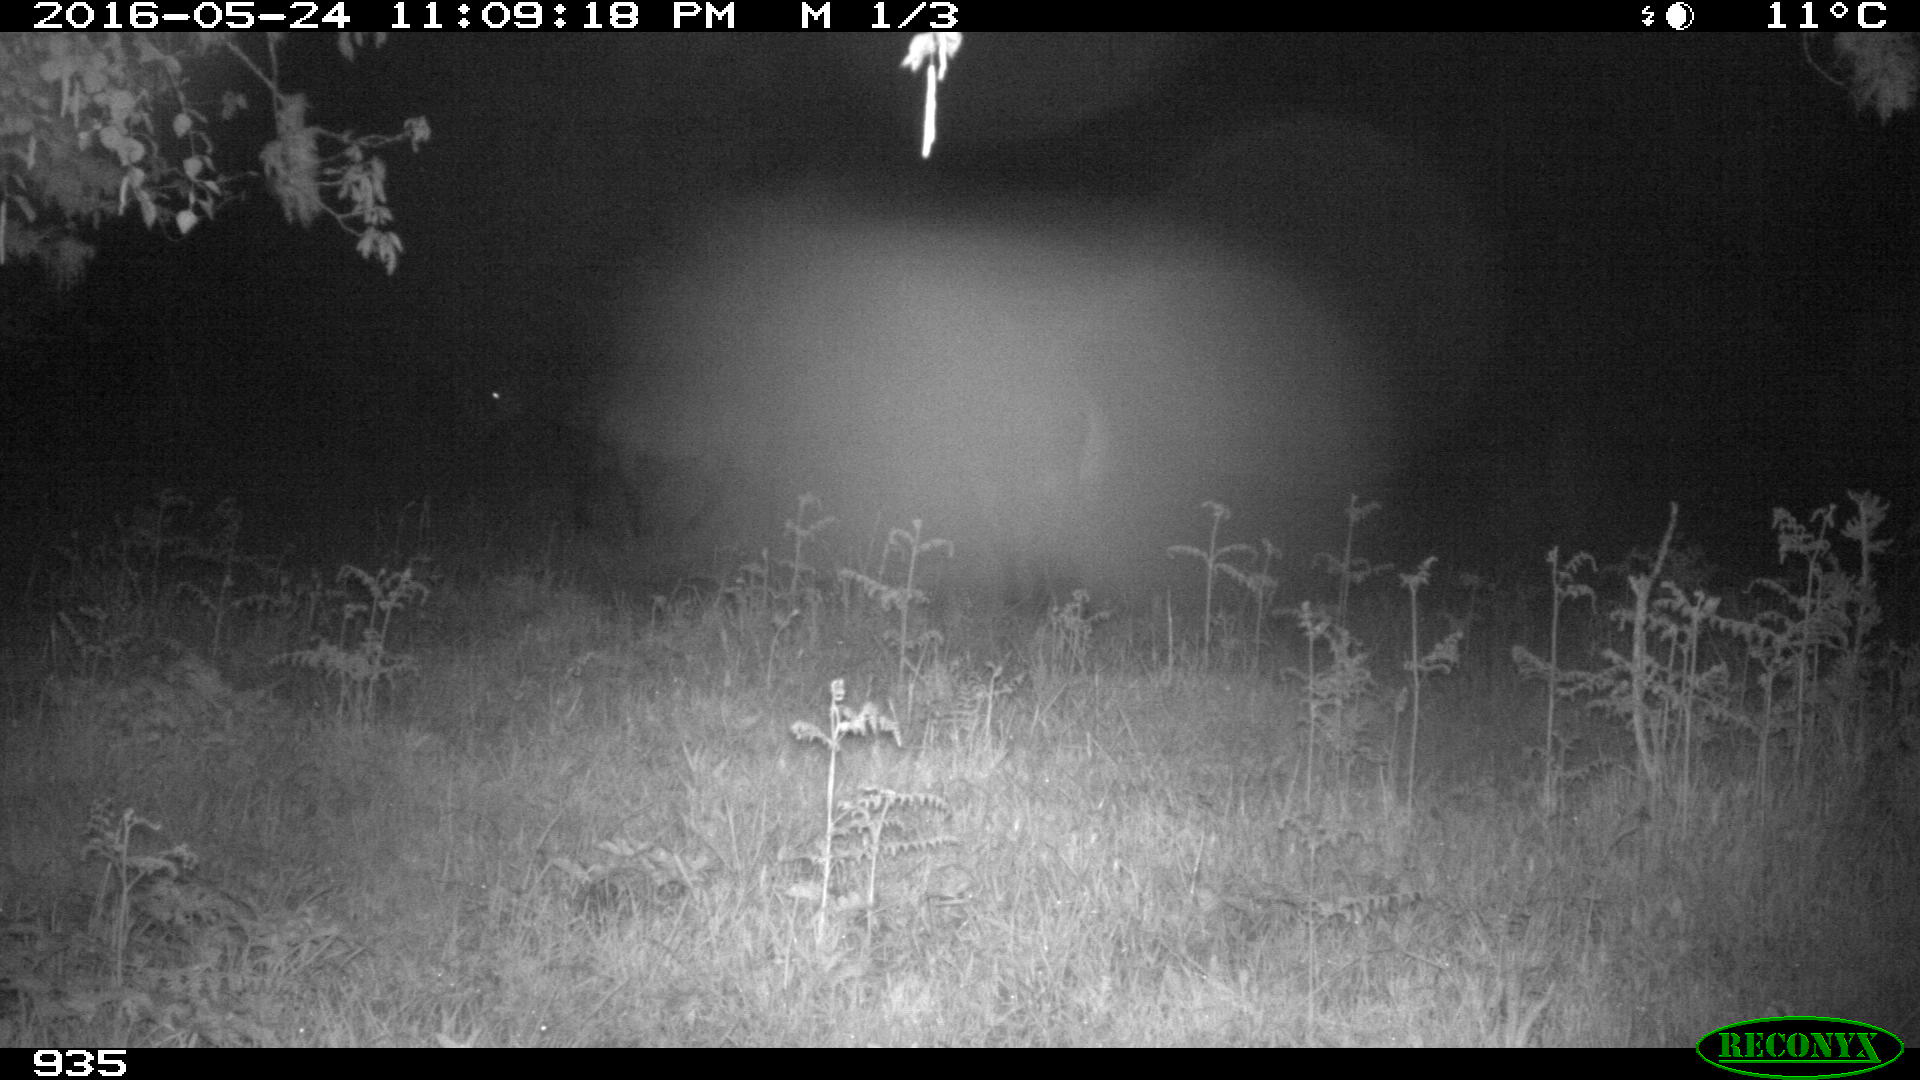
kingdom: Animalia
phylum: Chordata
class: Mammalia
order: Perissodactyla
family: Equidae
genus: Equus
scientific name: Equus caballus
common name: Horse
